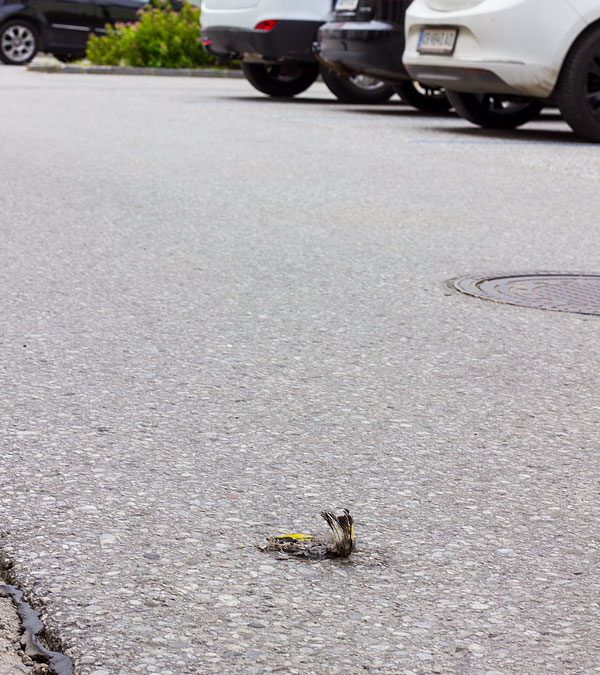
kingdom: Animalia
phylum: Chordata
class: Aves
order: Passeriformes
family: Fringillidae
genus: Carduelis
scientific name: Carduelis carduelis
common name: European goldfinch
